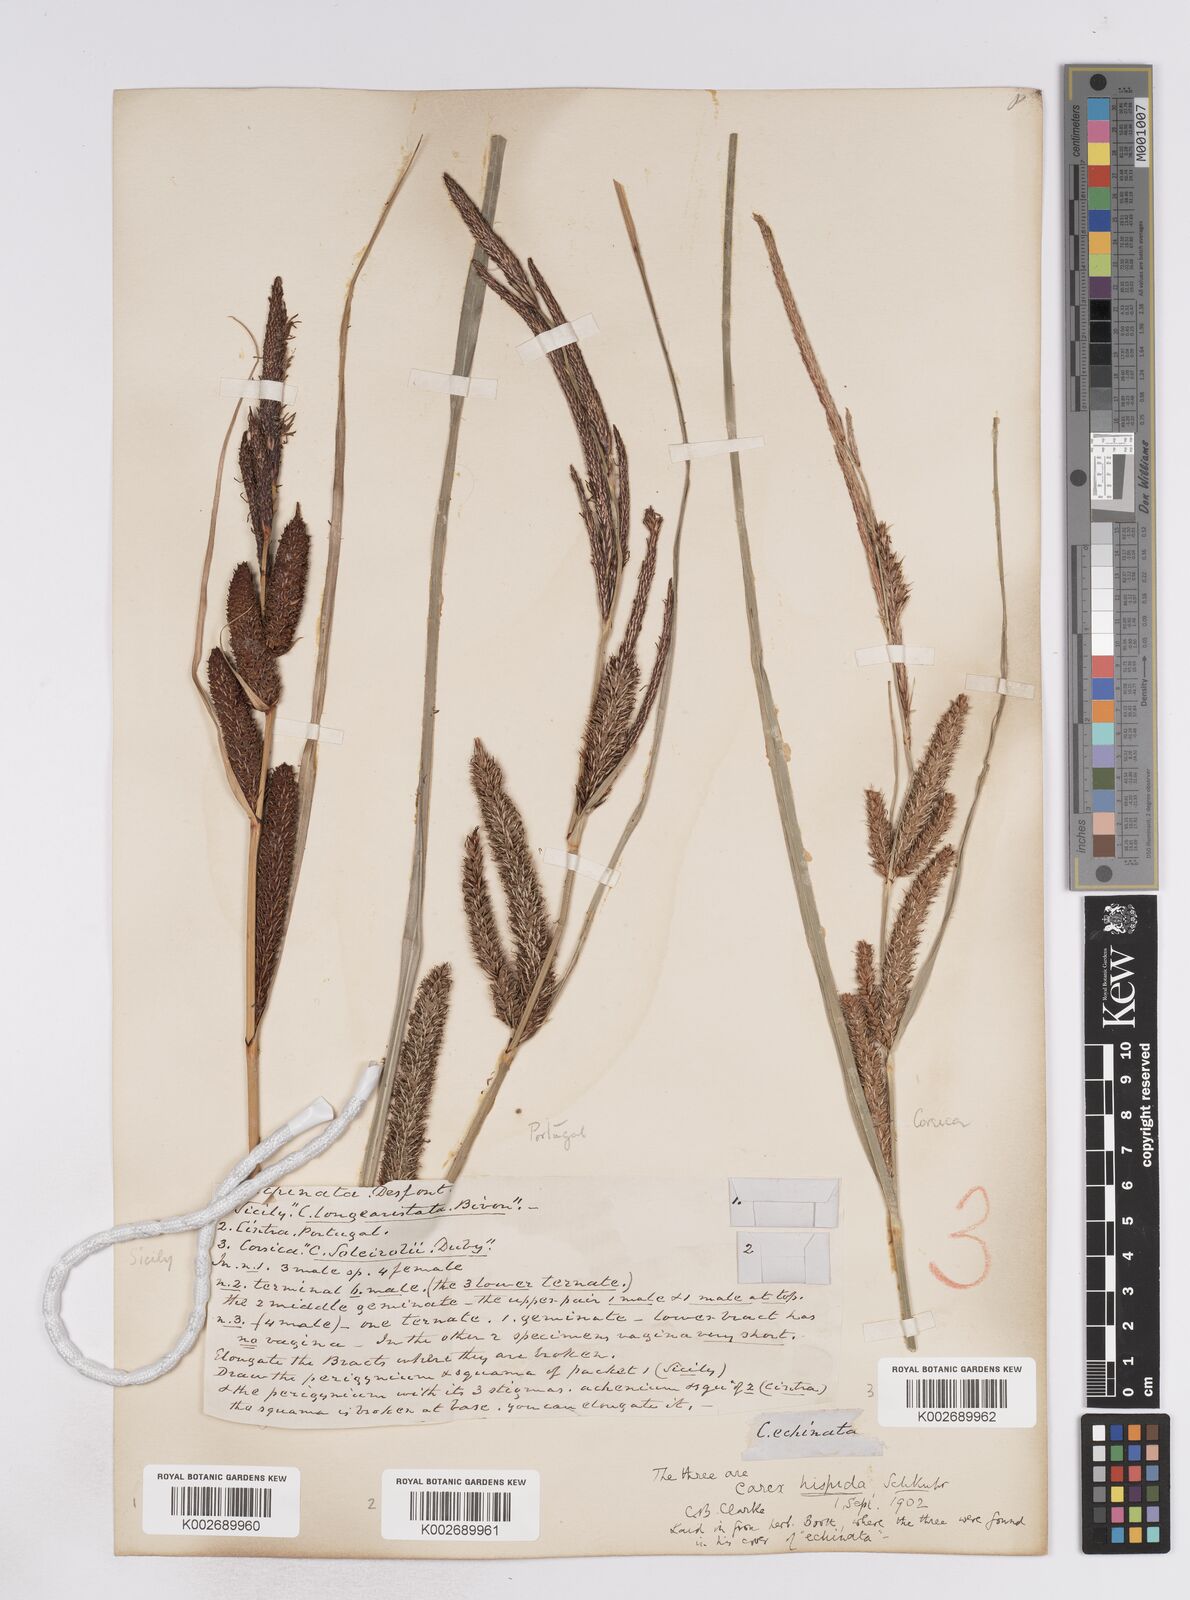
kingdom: Plantae
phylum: Tracheophyta
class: Liliopsida
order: Poales
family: Cyperaceae
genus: Carex
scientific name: Carex hispida
